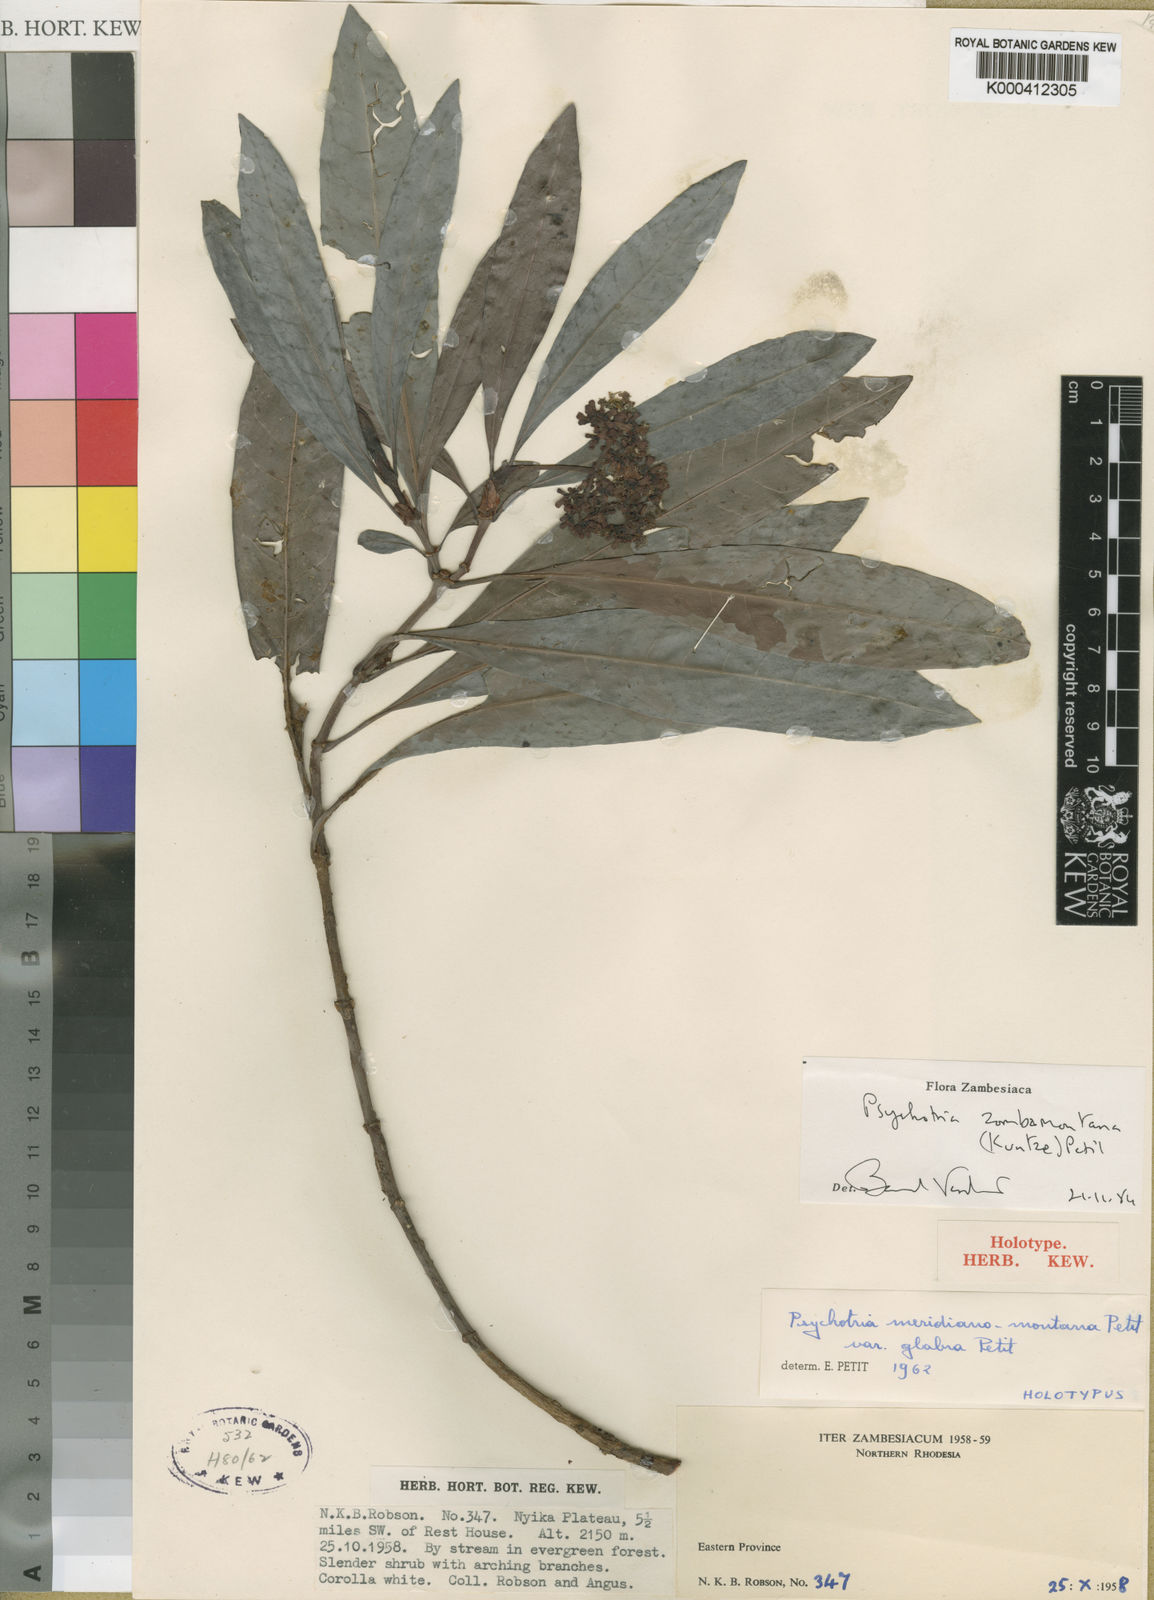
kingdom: Plantae
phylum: Tracheophyta
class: Magnoliopsida
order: Gentianales
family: Rubiaceae
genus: Psychotria
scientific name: Psychotria zombamontana
